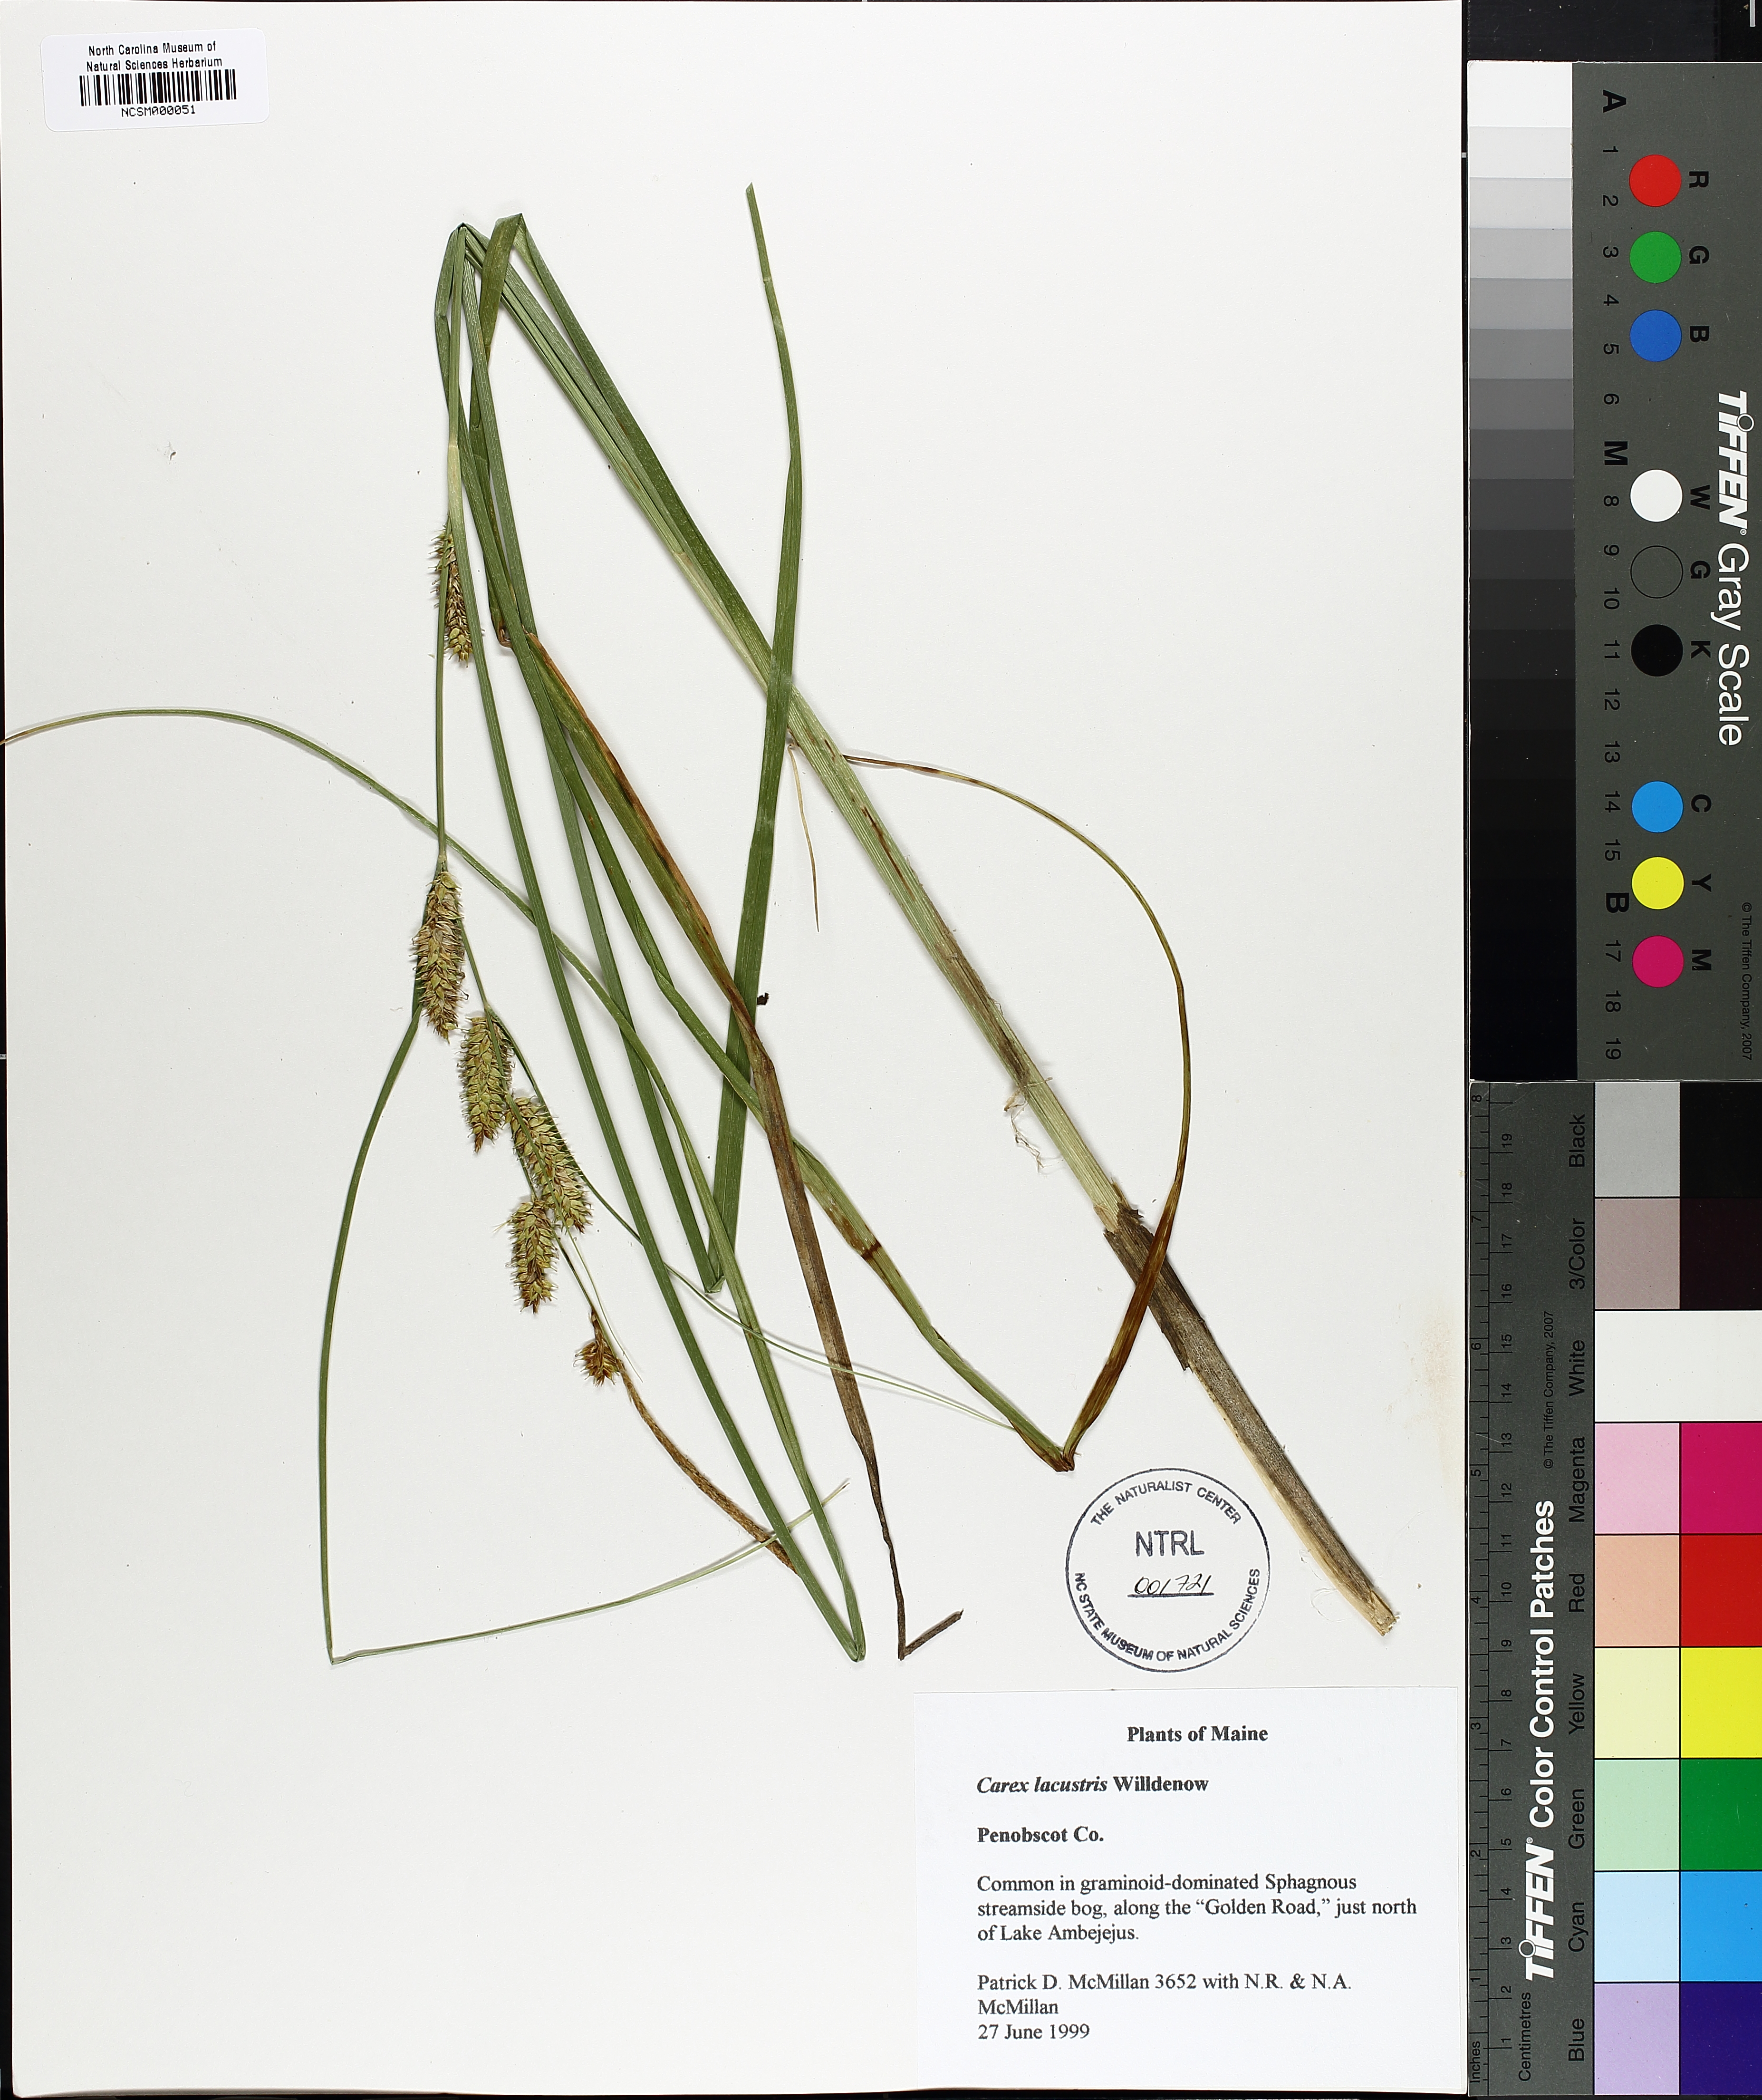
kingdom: Plantae
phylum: Tracheophyta
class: Liliopsida
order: Poales
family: Cyperaceae
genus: Carex
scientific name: Carex lacustris
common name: Common lake sedge
